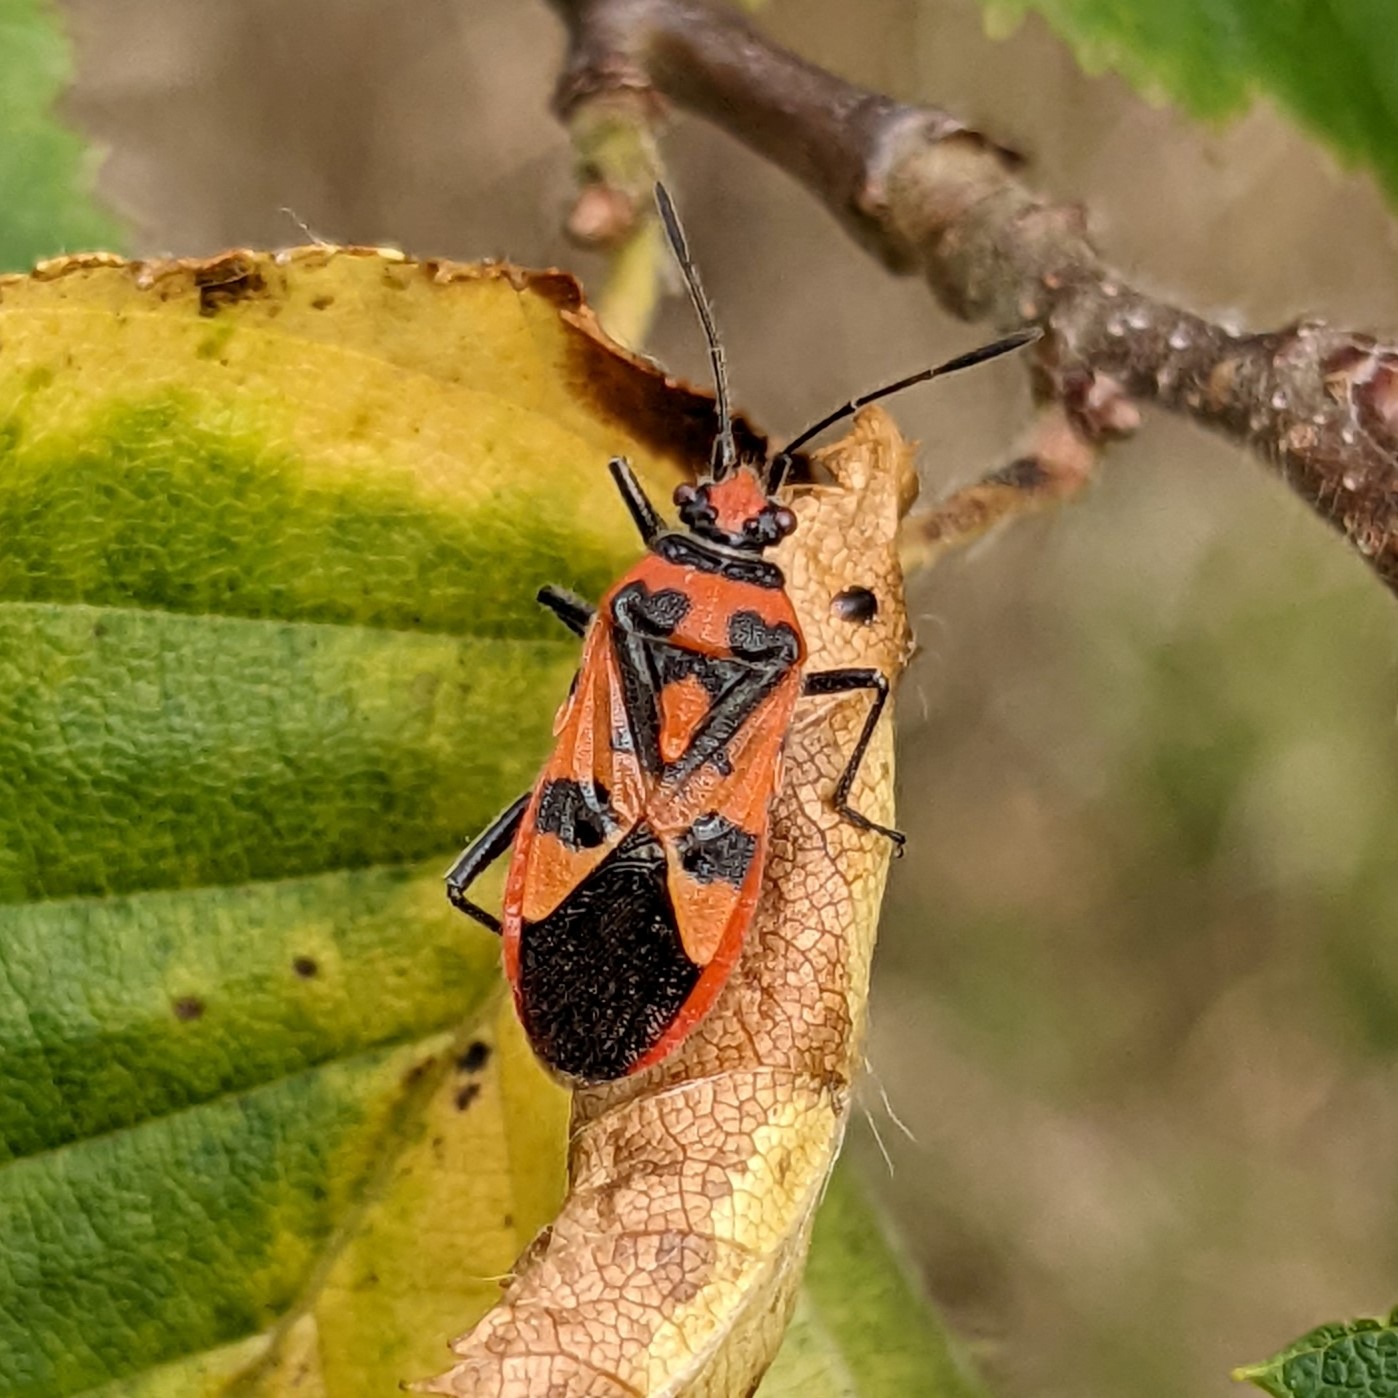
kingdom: Animalia
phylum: Arthropoda
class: Insecta
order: Hemiptera
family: Rhopalidae
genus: Corizus
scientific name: Corizus hyoscyami
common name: Rød kanttæge
